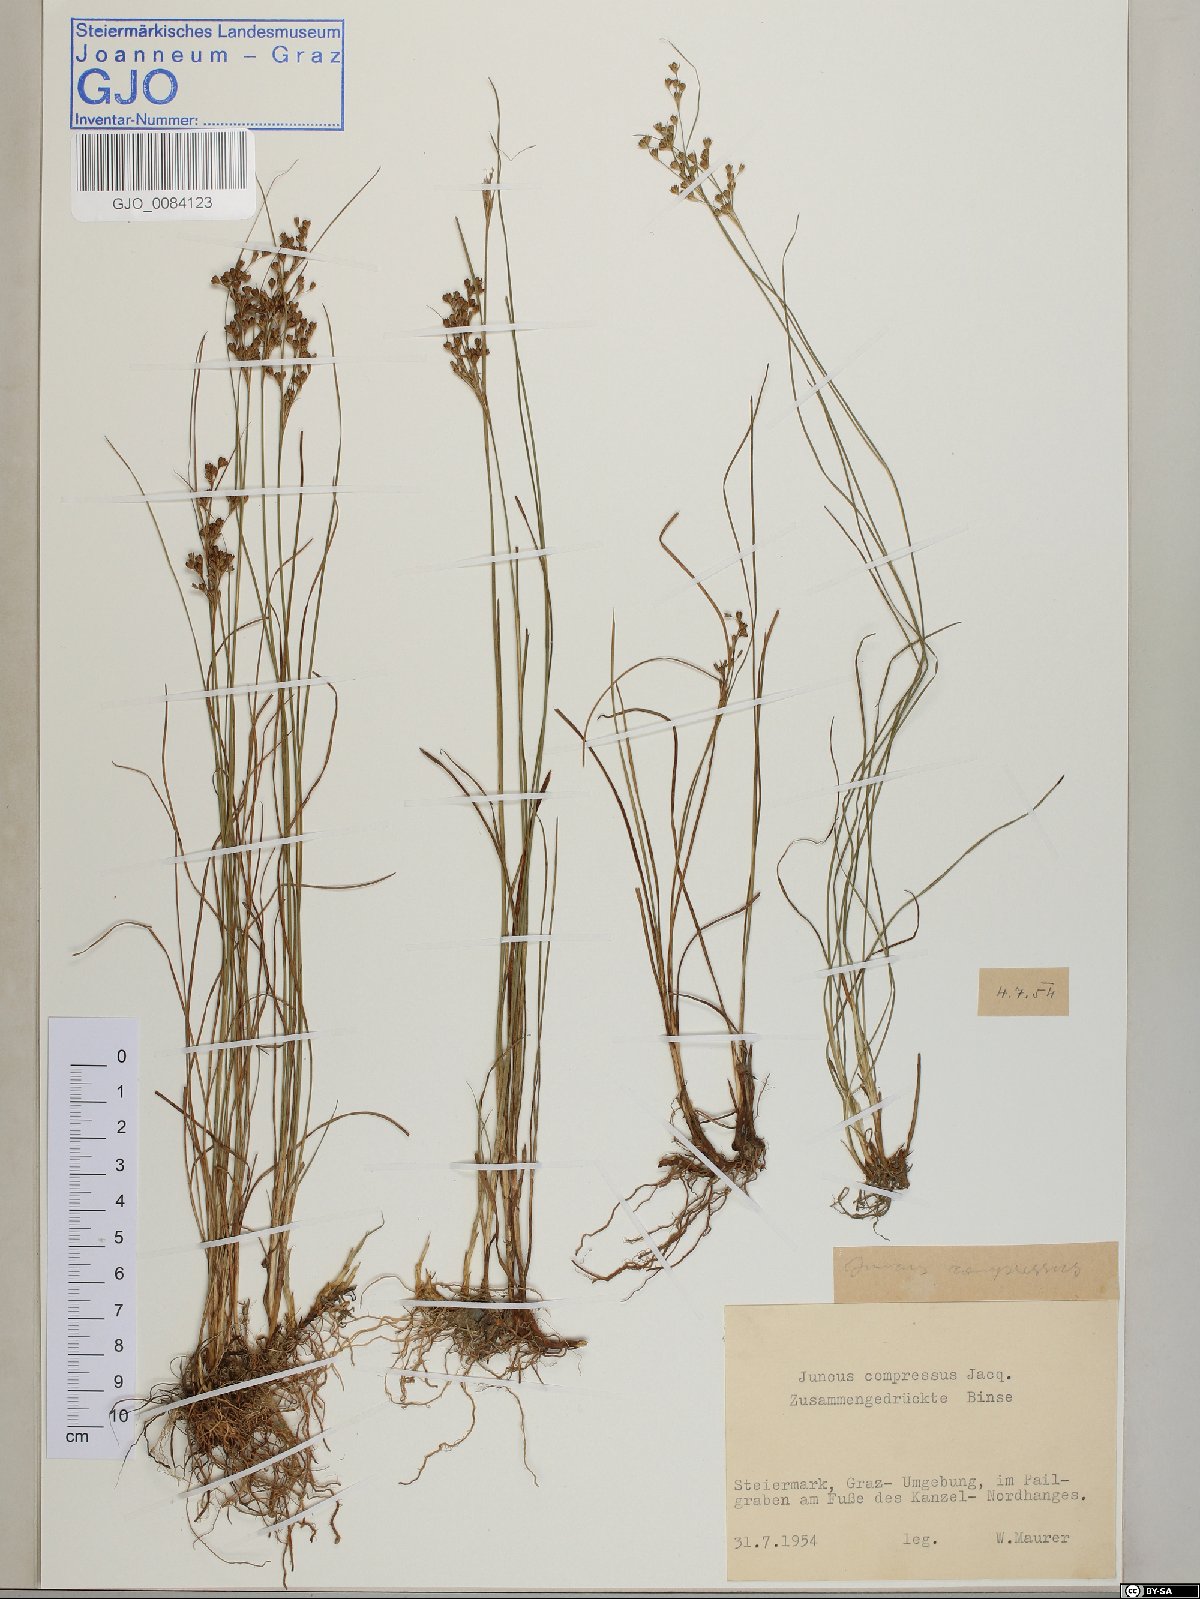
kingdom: Plantae
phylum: Tracheophyta
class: Liliopsida
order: Poales
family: Juncaceae
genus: Juncus
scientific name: Juncus compressus
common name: Round-fruited rush
